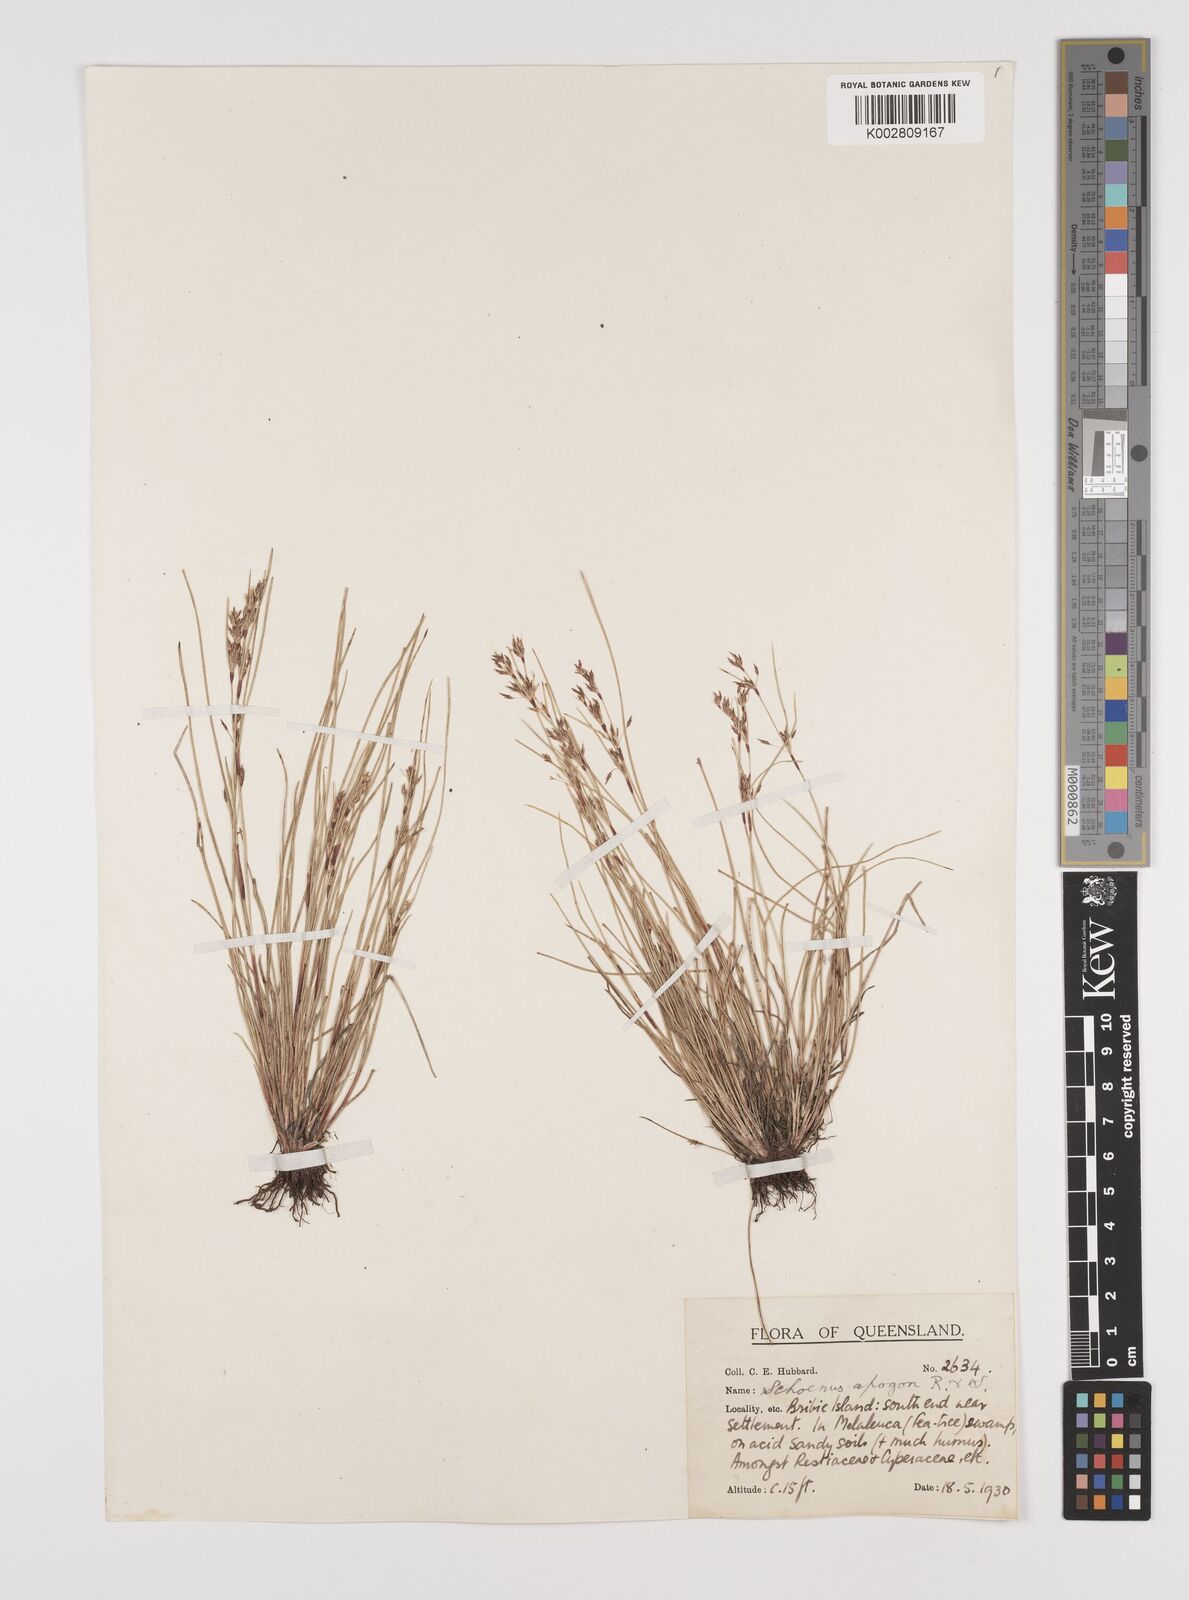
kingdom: Plantae
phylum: Tracheophyta
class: Liliopsida
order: Poales
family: Cyperaceae
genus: Schoenus
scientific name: Schoenus apogon
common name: Smooth bogrush
